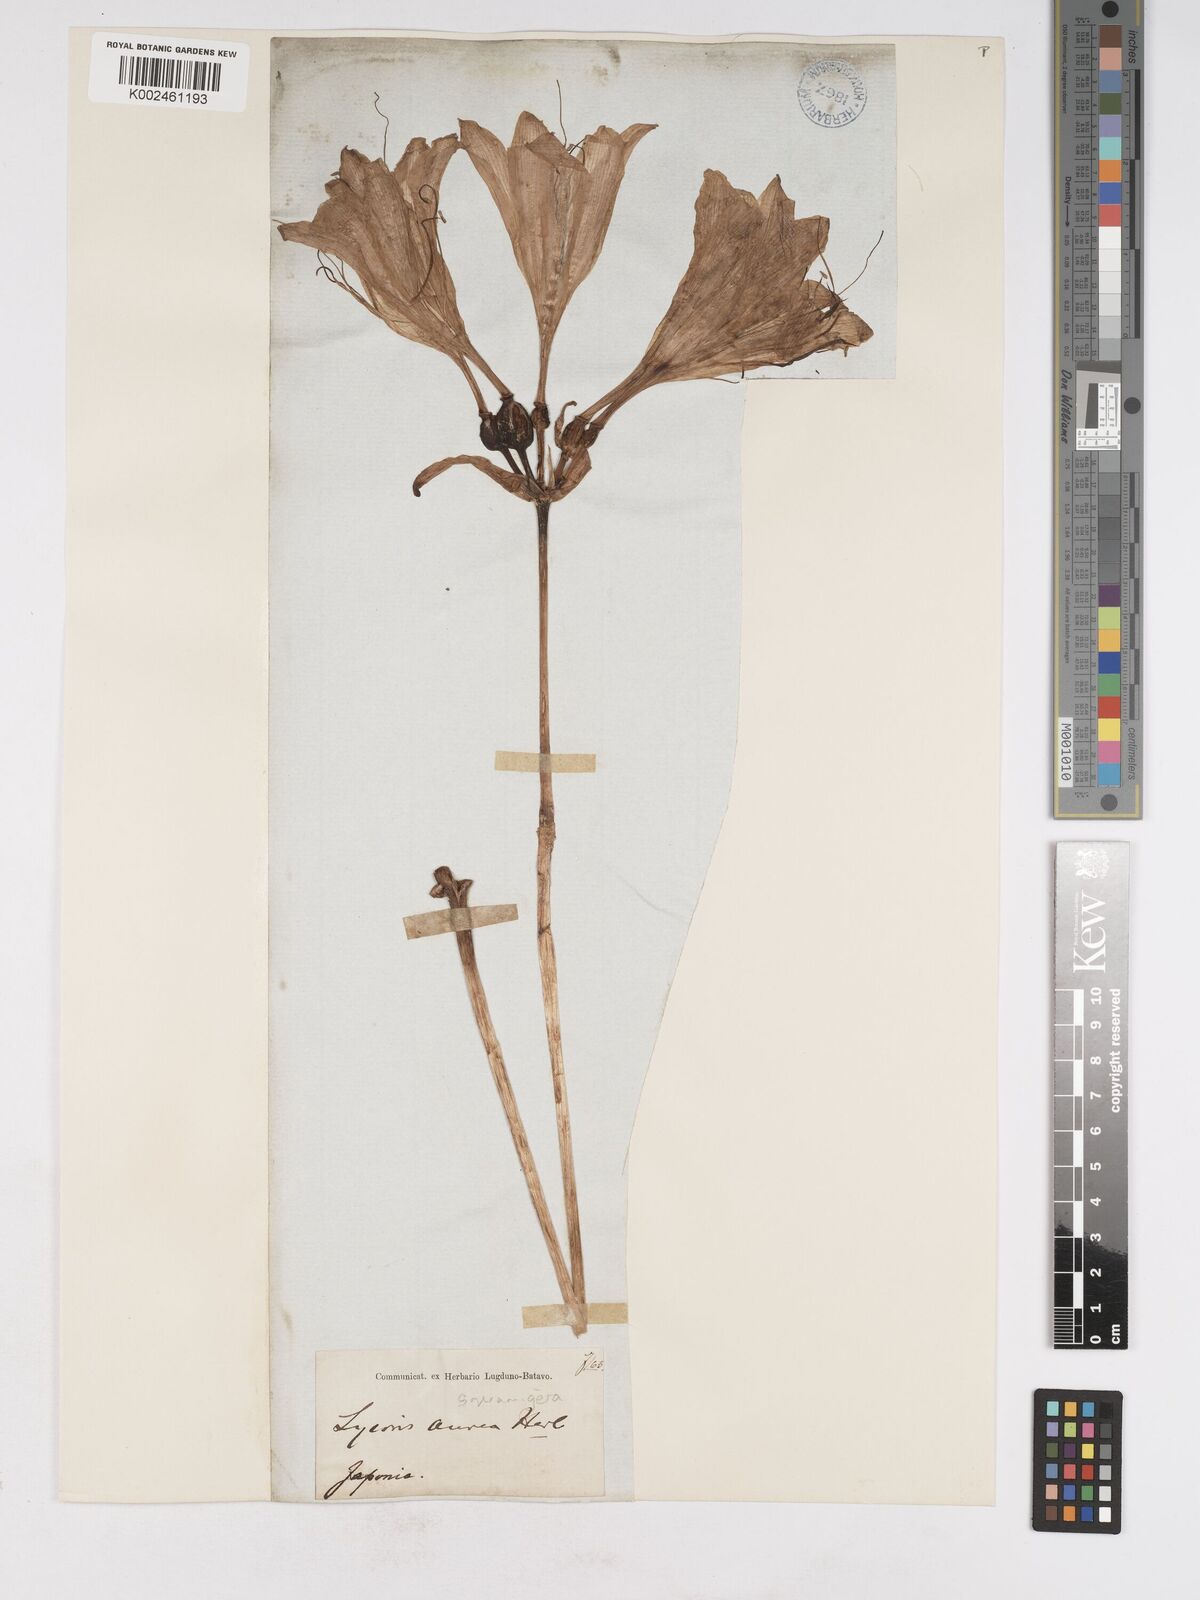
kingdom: Plantae
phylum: Tracheophyta
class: Liliopsida
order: Asparagales
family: Amaryllidaceae
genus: Lycoris
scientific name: Lycoris squamigera
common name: Magic-lily
